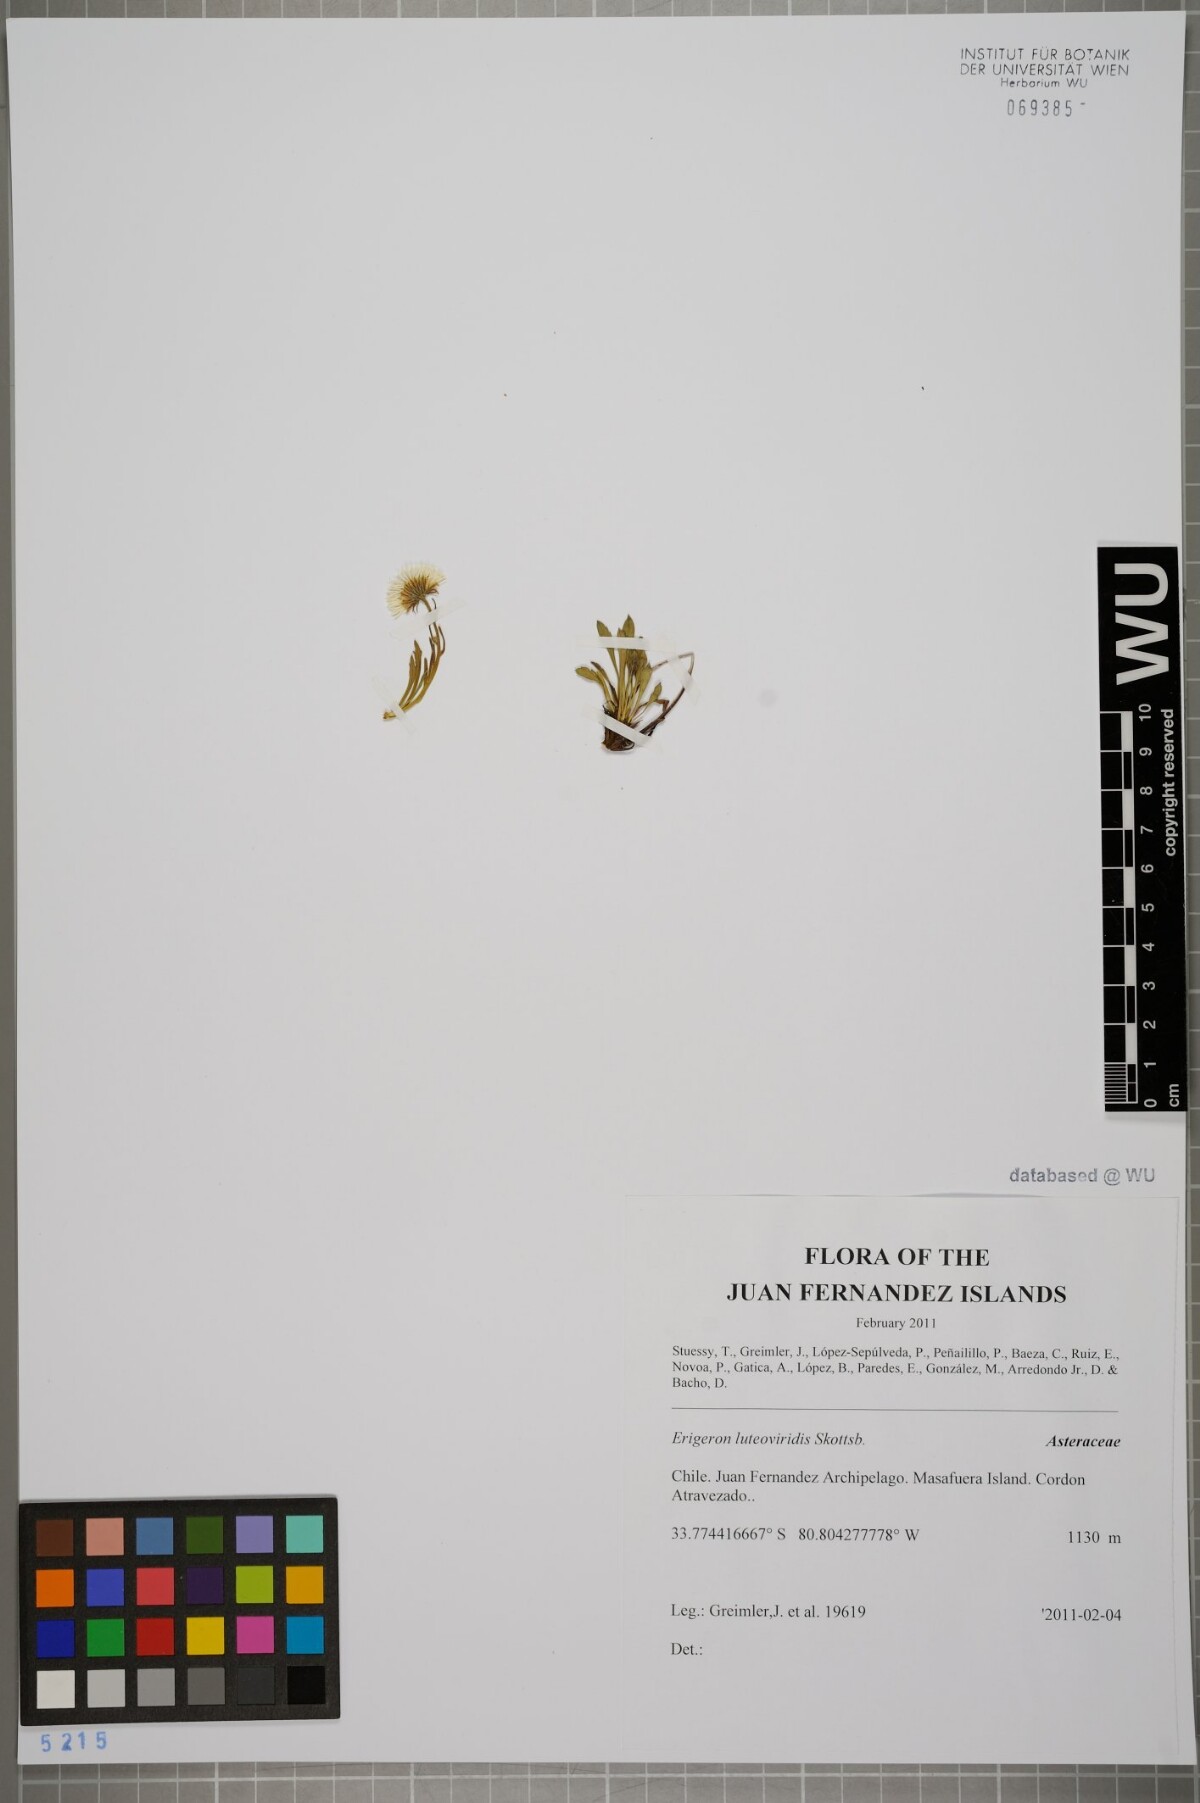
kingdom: Plantae
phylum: Tracheophyta
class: Magnoliopsida
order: Asterales
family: Asteraceae
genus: Erigeron
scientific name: Erigeron luteoviridis
